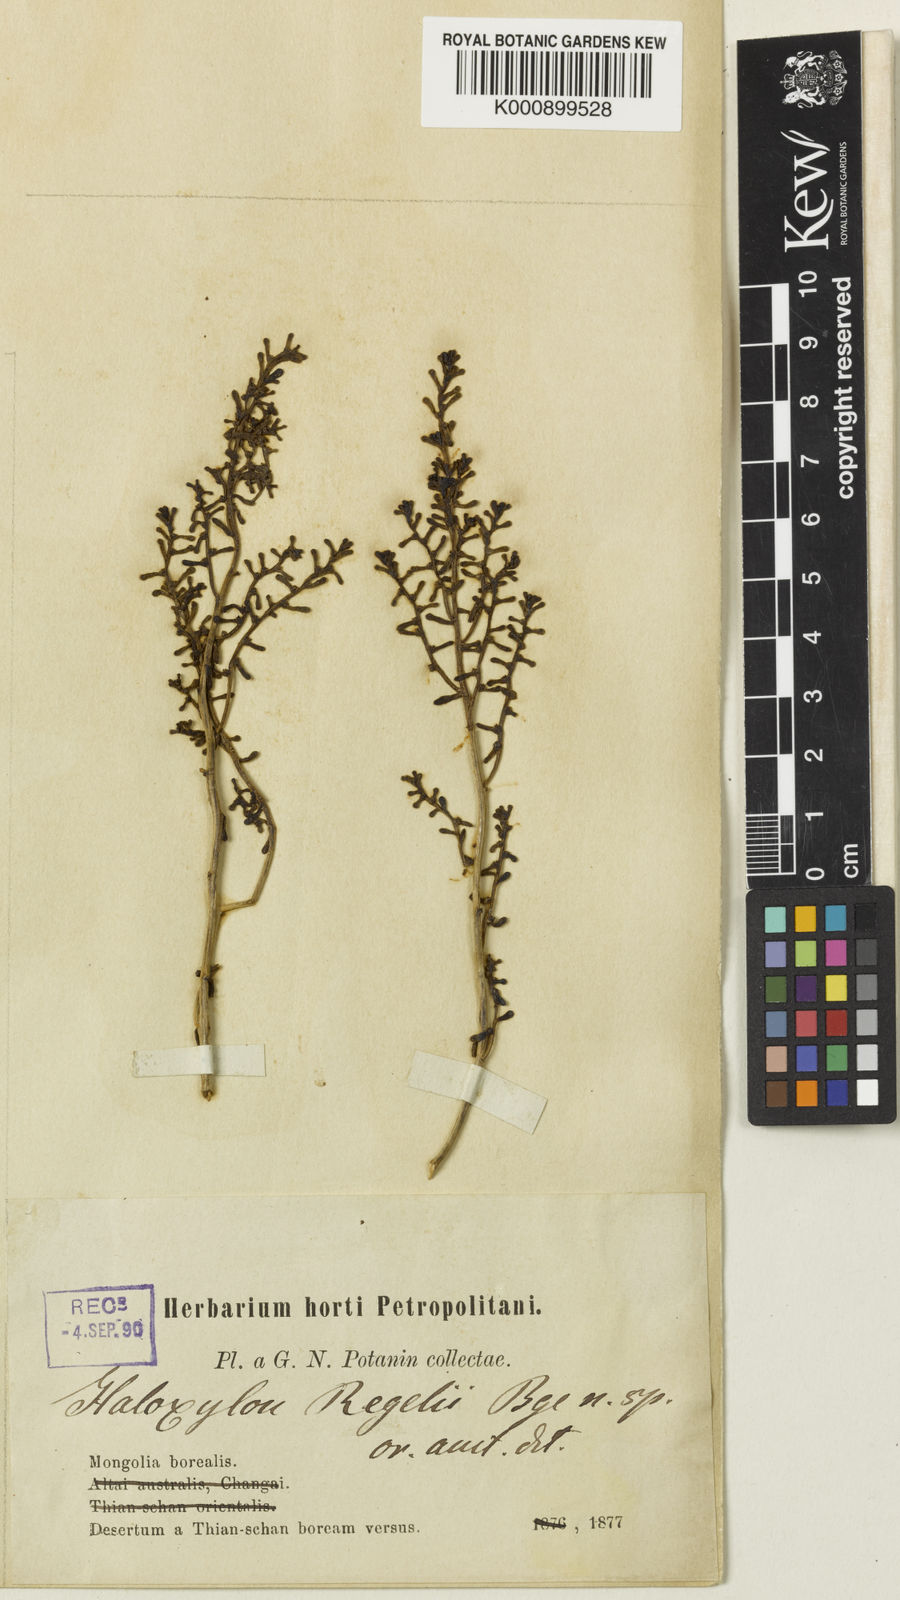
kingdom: Plantae
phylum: Tracheophyta
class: Magnoliopsida
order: Caryophyllales
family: Amaranthaceae
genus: Iljinia
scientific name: Iljinia
